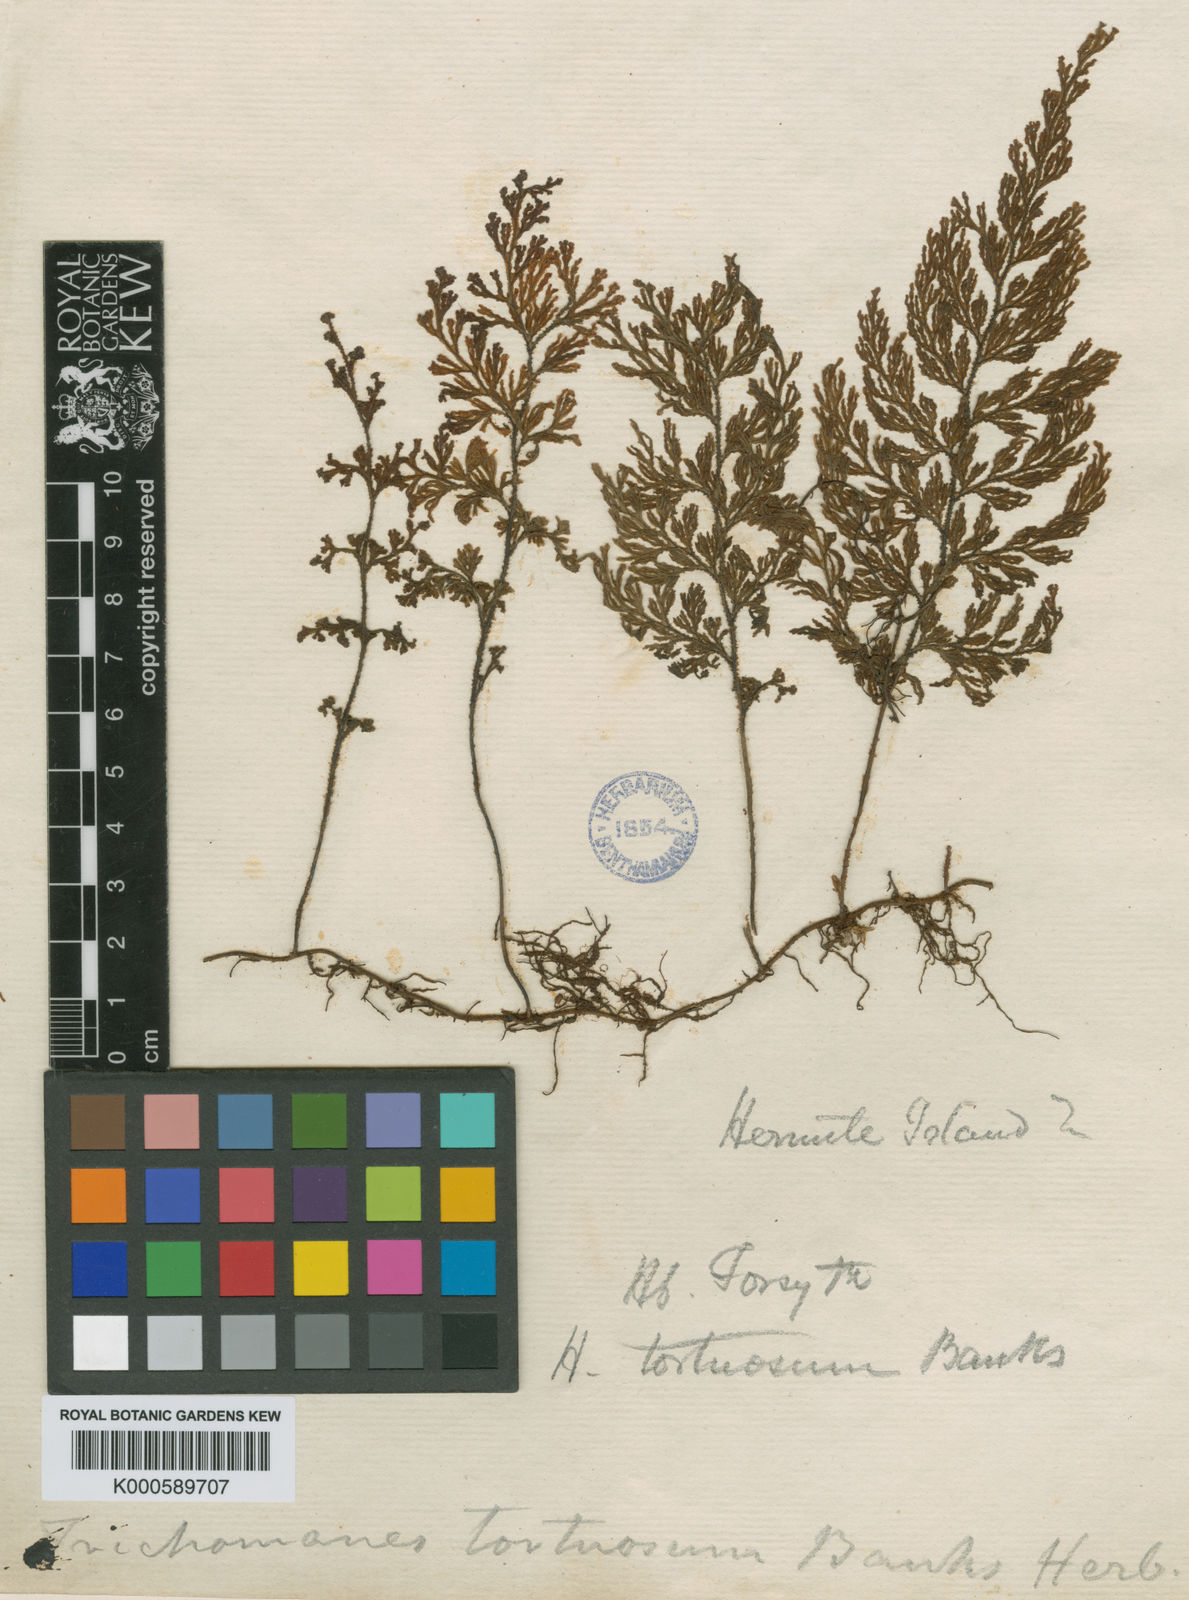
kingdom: Plantae
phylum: Tracheophyta
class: Polypodiopsida
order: Hymenophyllales
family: Hymenophyllaceae
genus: Hymenophyllum
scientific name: Hymenophyllum tortuosum
